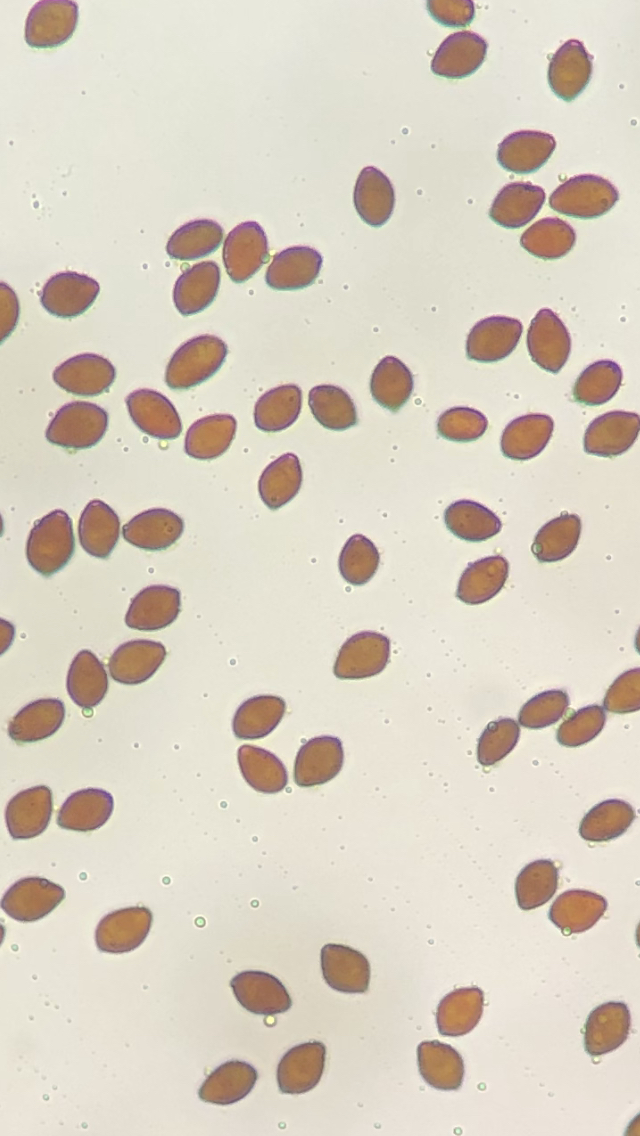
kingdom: Fungi
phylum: Basidiomycota
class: Agaricomycetes
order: Agaricales
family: Bolbitiaceae
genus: Panaeolus
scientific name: Panaeolus acuminatus
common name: høj glanshat
